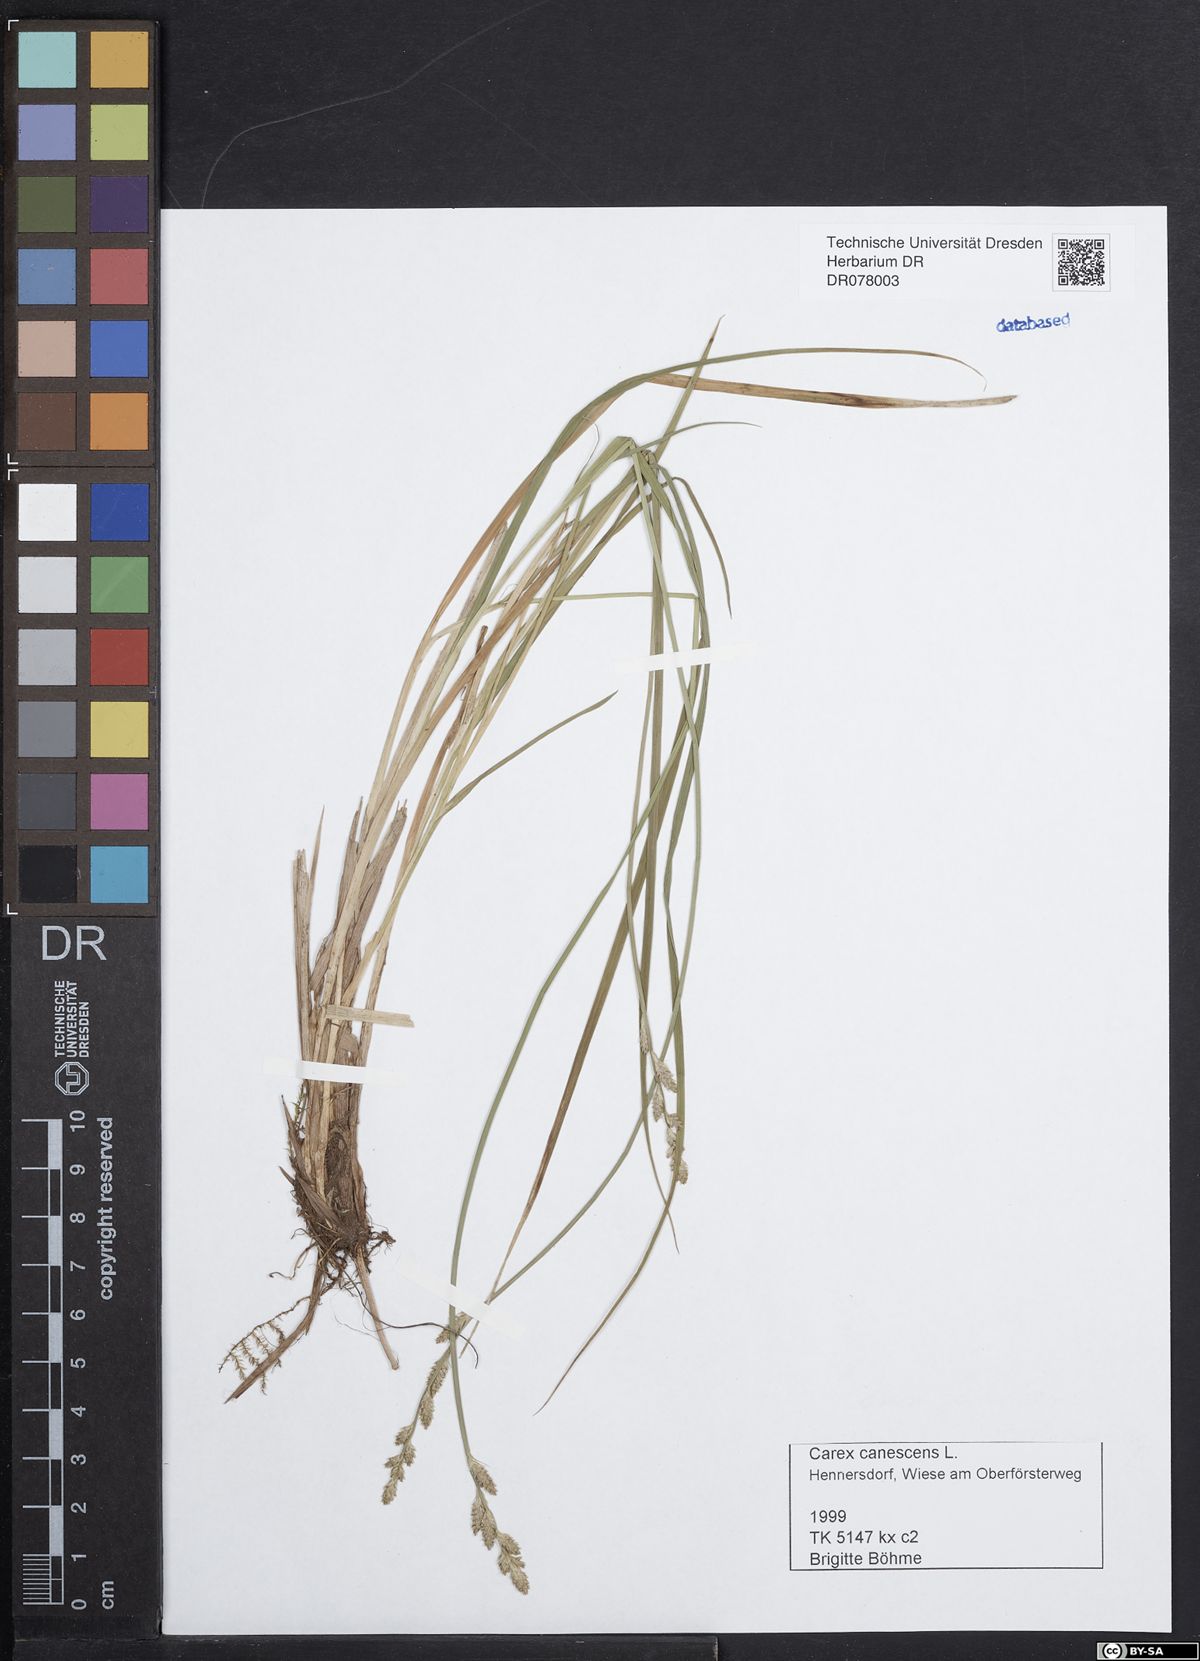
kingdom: Plantae
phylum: Tracheophyta
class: Liliopsida
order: Poales
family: Cyperaceae
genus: Carex
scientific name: Carex canescens
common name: White sedge
